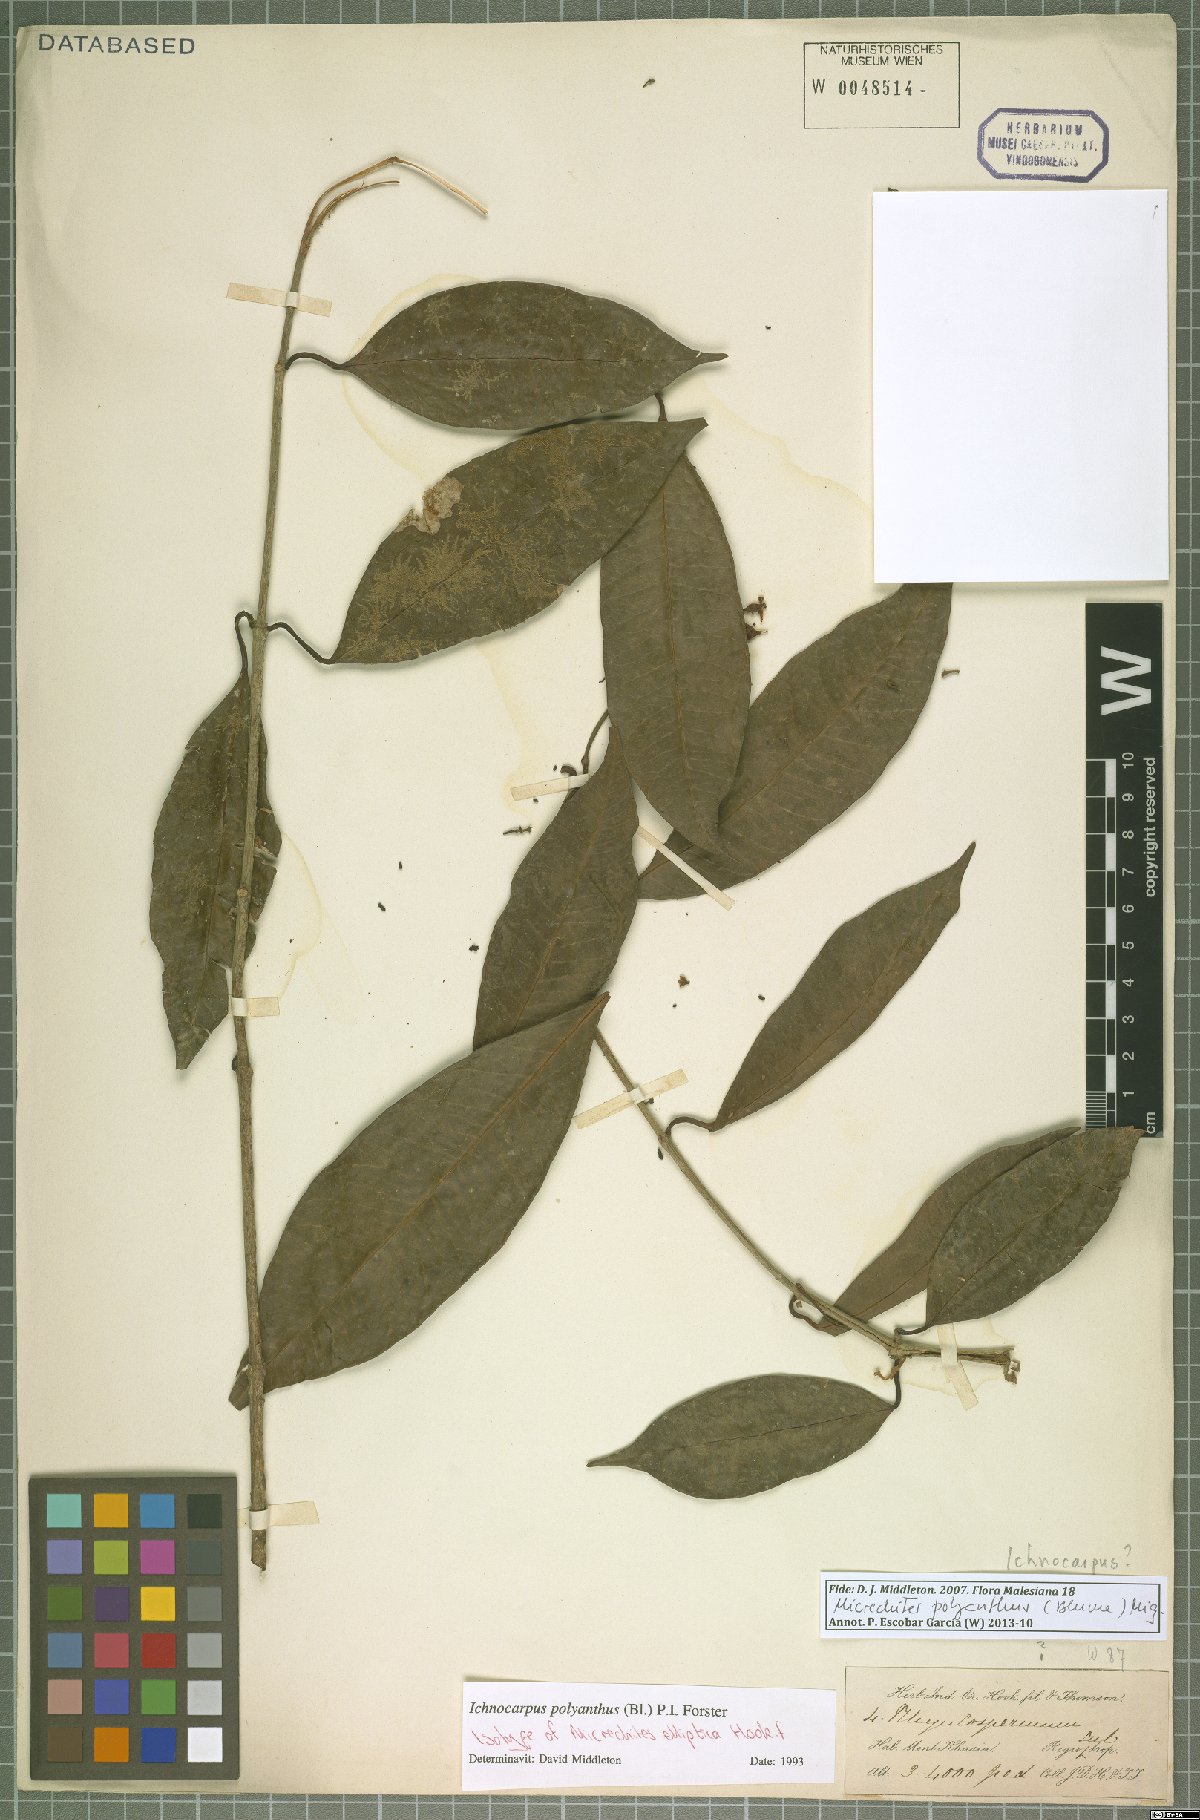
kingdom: Plantae
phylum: Tracheophyta
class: Magnoliopsida
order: Gentianales
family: Apocynaceae
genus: Micrechites
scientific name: Micrechites polyantha
